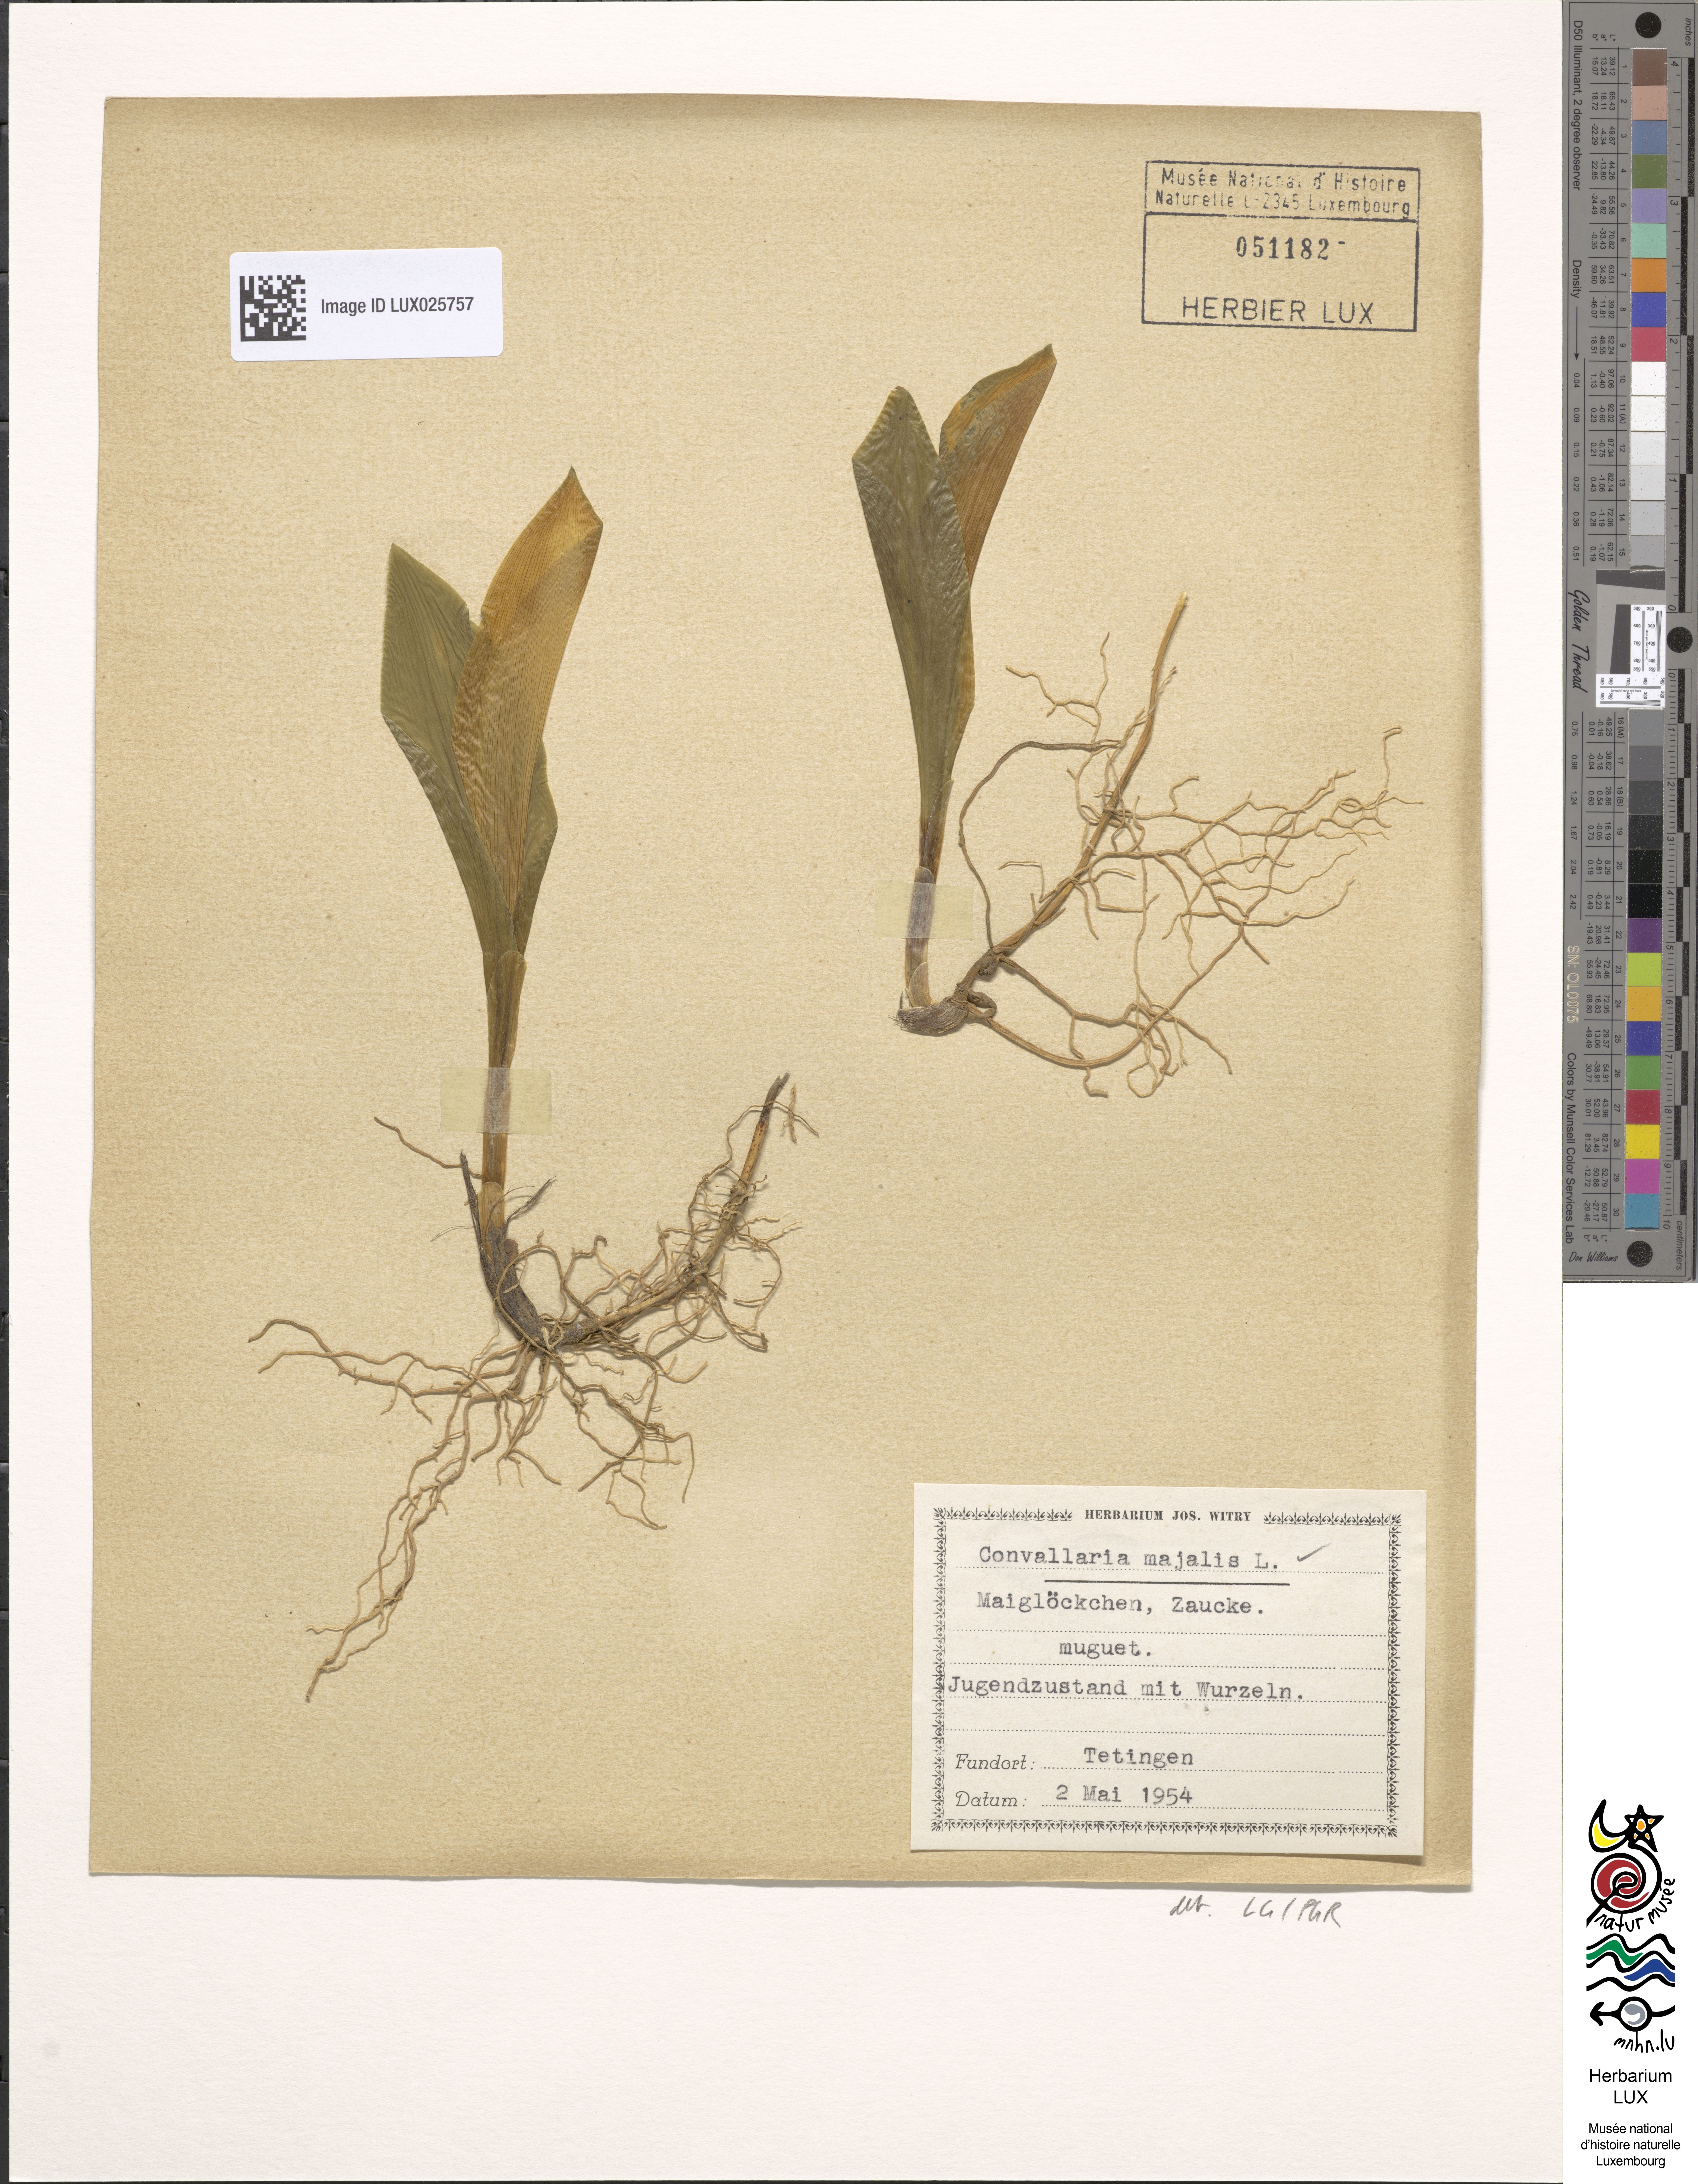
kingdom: Plantae
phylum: Tracheophyta
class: Liliopsida
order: Asparagales
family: Asparagaceae
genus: Convallaria
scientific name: Convallaria majalis
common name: Lily-of-the-valley
